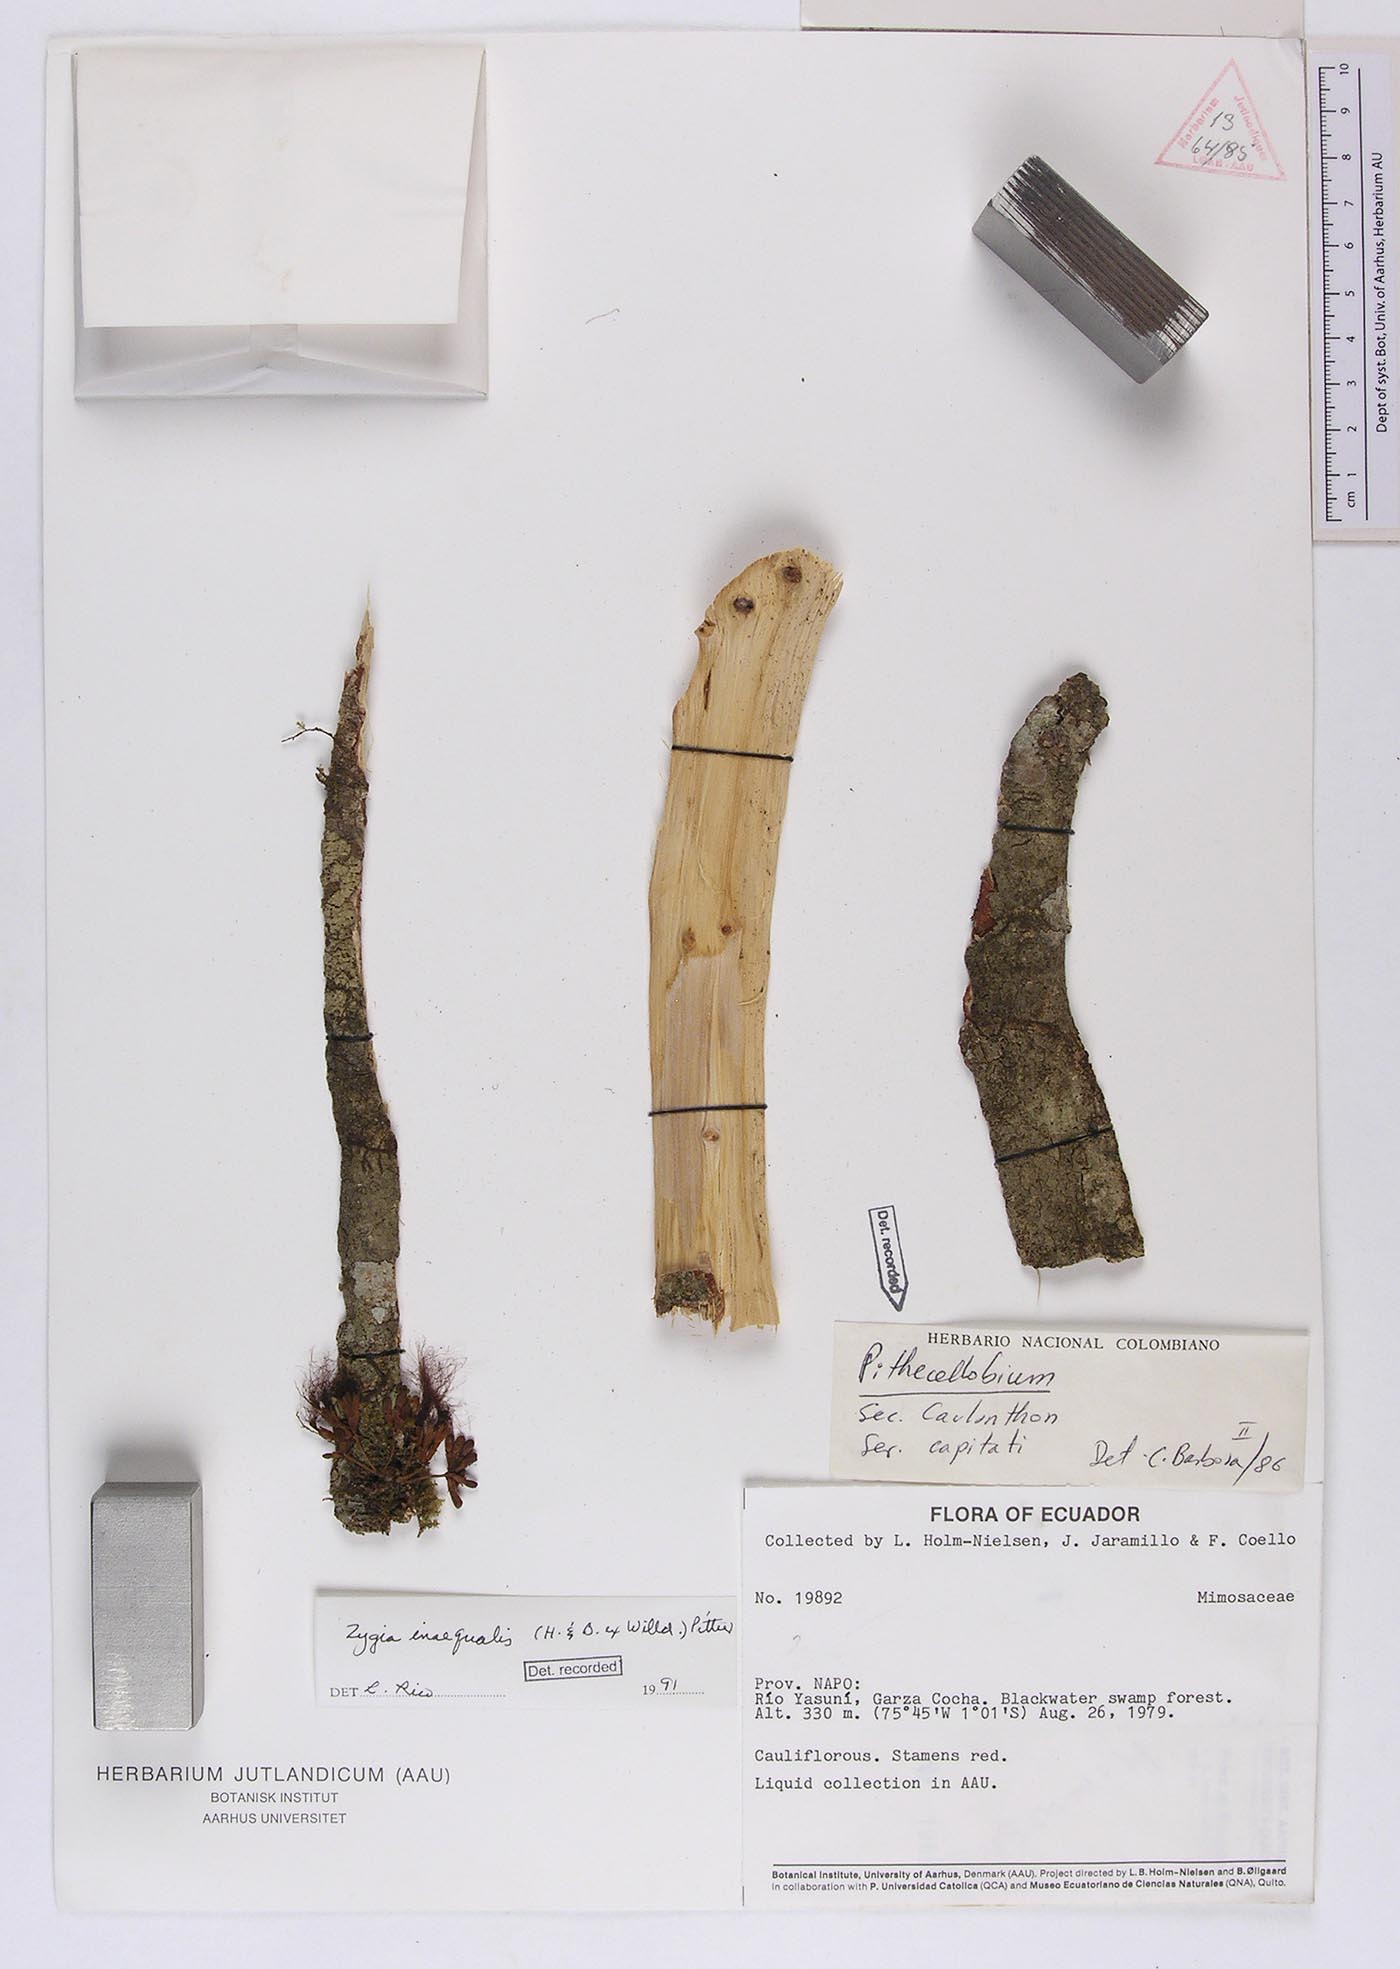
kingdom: Plantae
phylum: Tracheophyta
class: Magnoliopsida
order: Fabales
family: Fabaceae
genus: Zygia
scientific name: Zygia inaequalis
